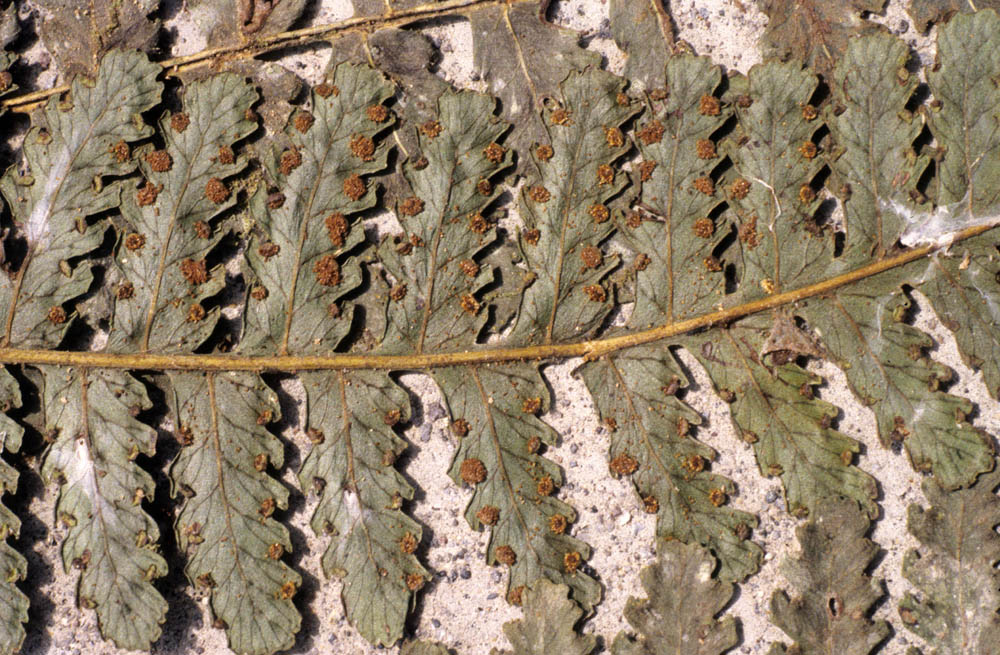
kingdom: Plantae
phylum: Tracheophyta
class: Polypodiopsida
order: Polypodiales
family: Dennstaedtiaceae
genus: Dennstaedtia
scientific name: Dennstaedtia vagans
